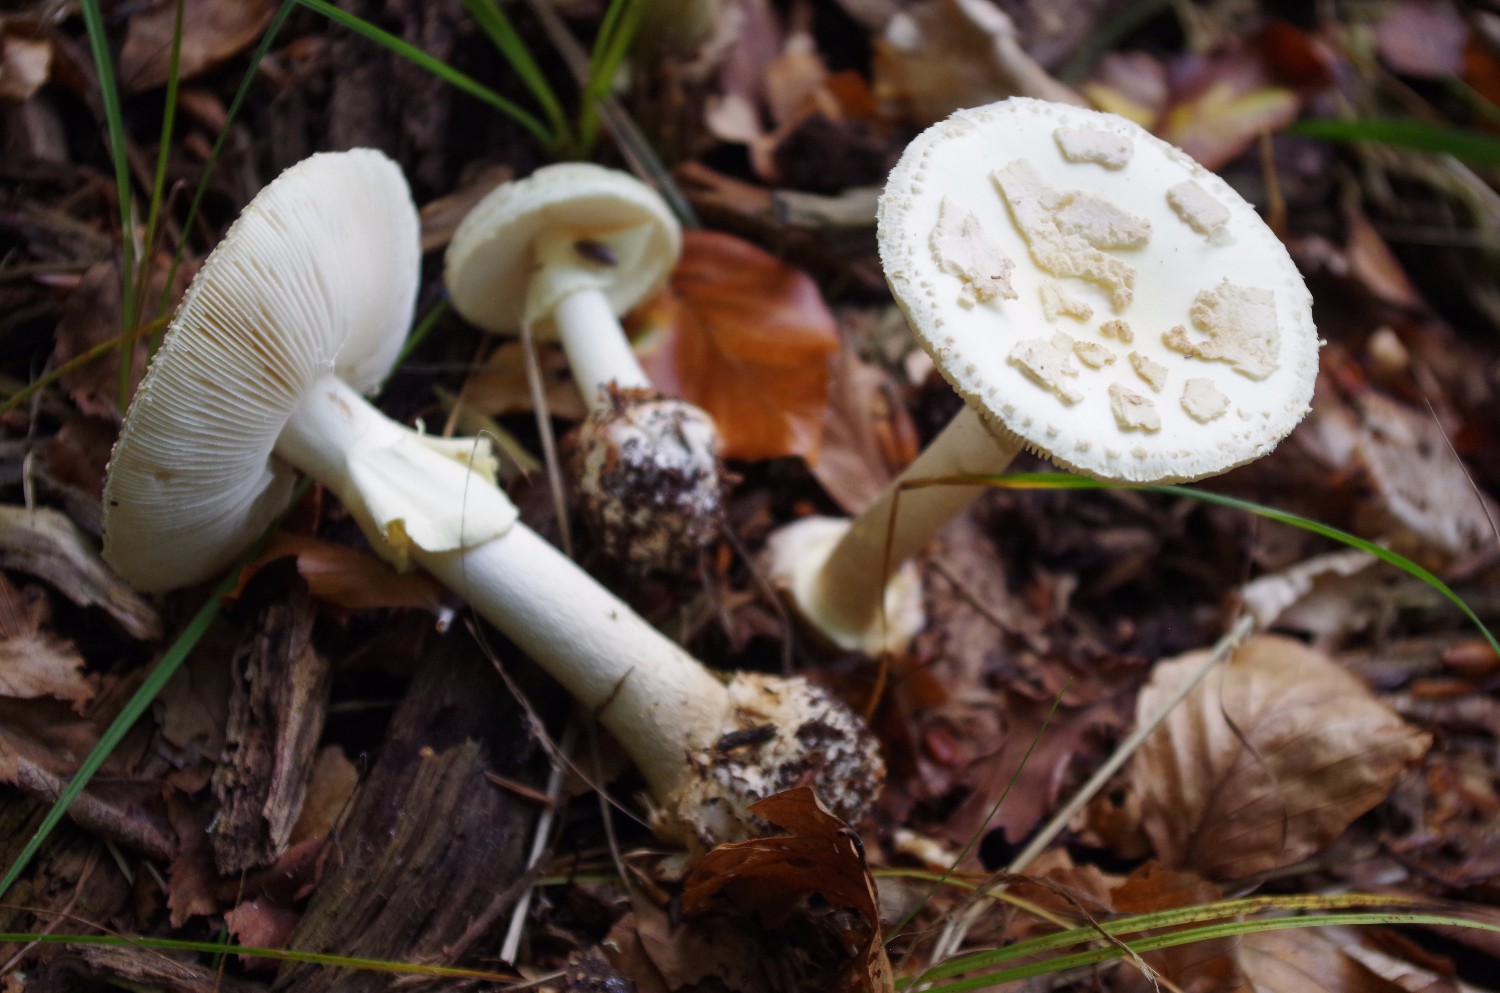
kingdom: Fungi
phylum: Basidiomycota
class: Agaricomycetes
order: Agaricales
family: Amanitaceae
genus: Amanita
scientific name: Amanita citrina
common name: kugleknoldet fluesvamp
